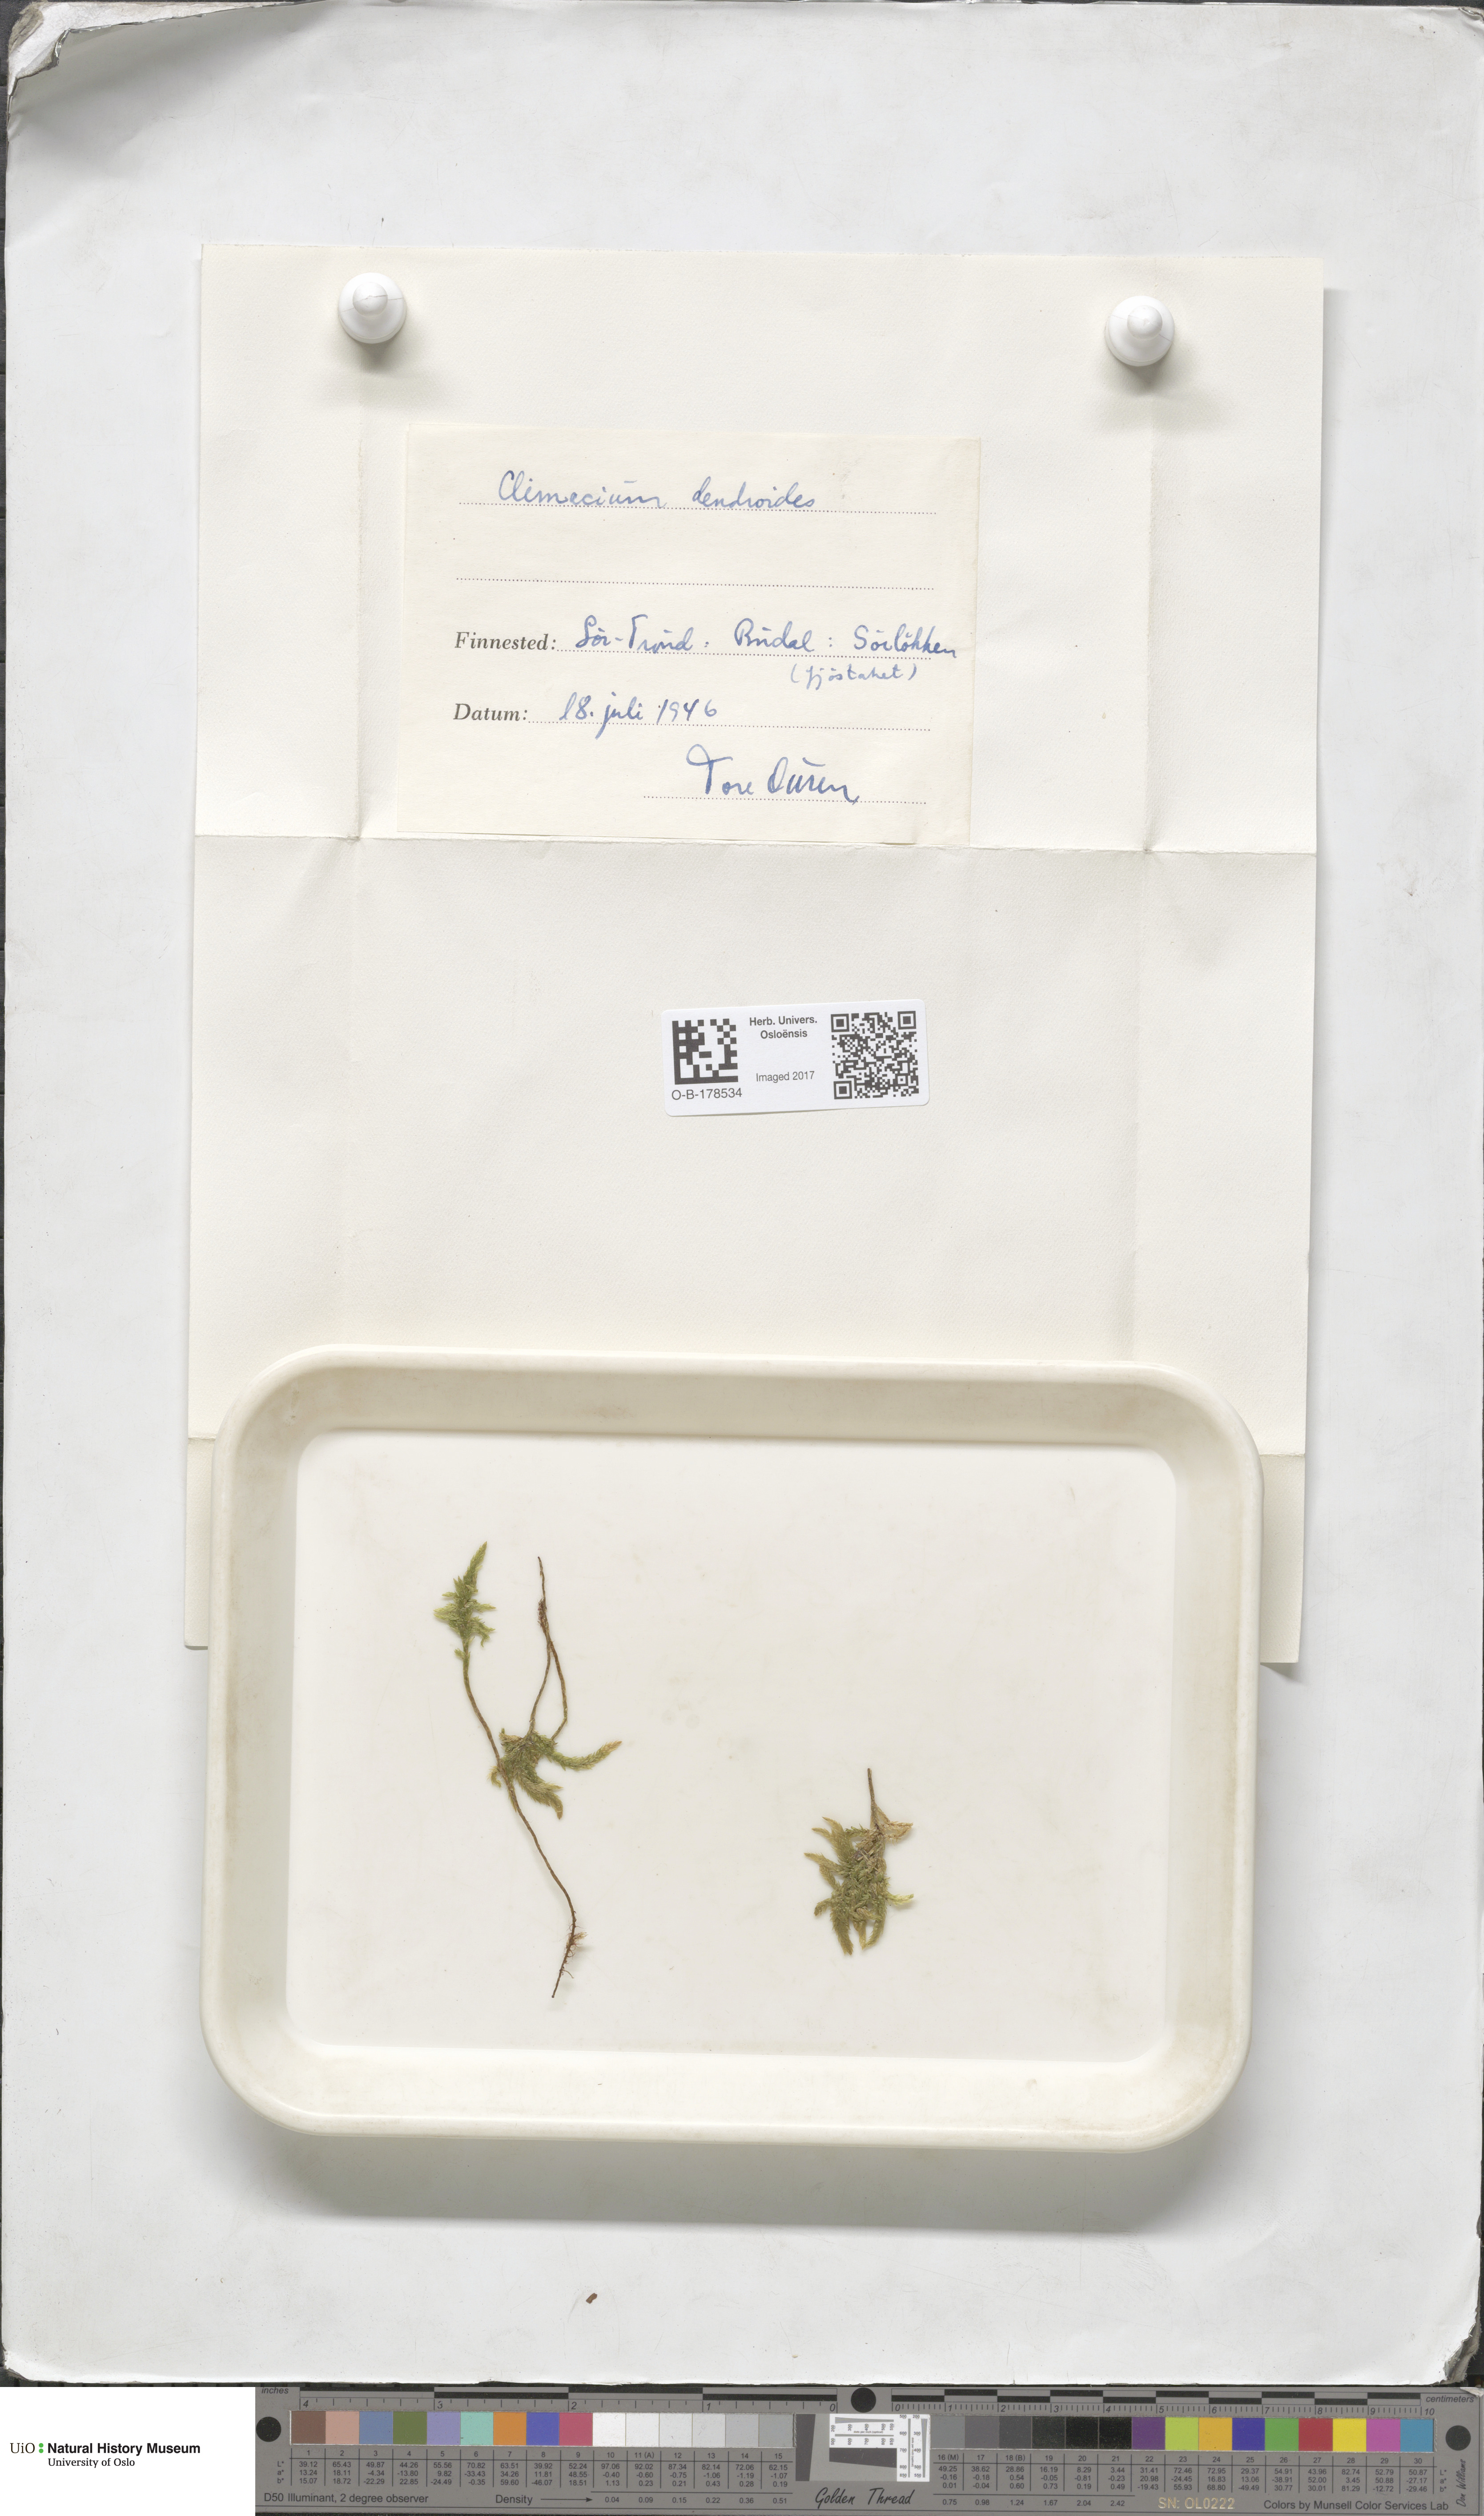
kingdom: Plantae
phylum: Bryophyta
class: Bryopsida
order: Hypnales
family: Climaciaceae
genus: Climacium
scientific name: Climacium dendroides
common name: Northern tree moss
